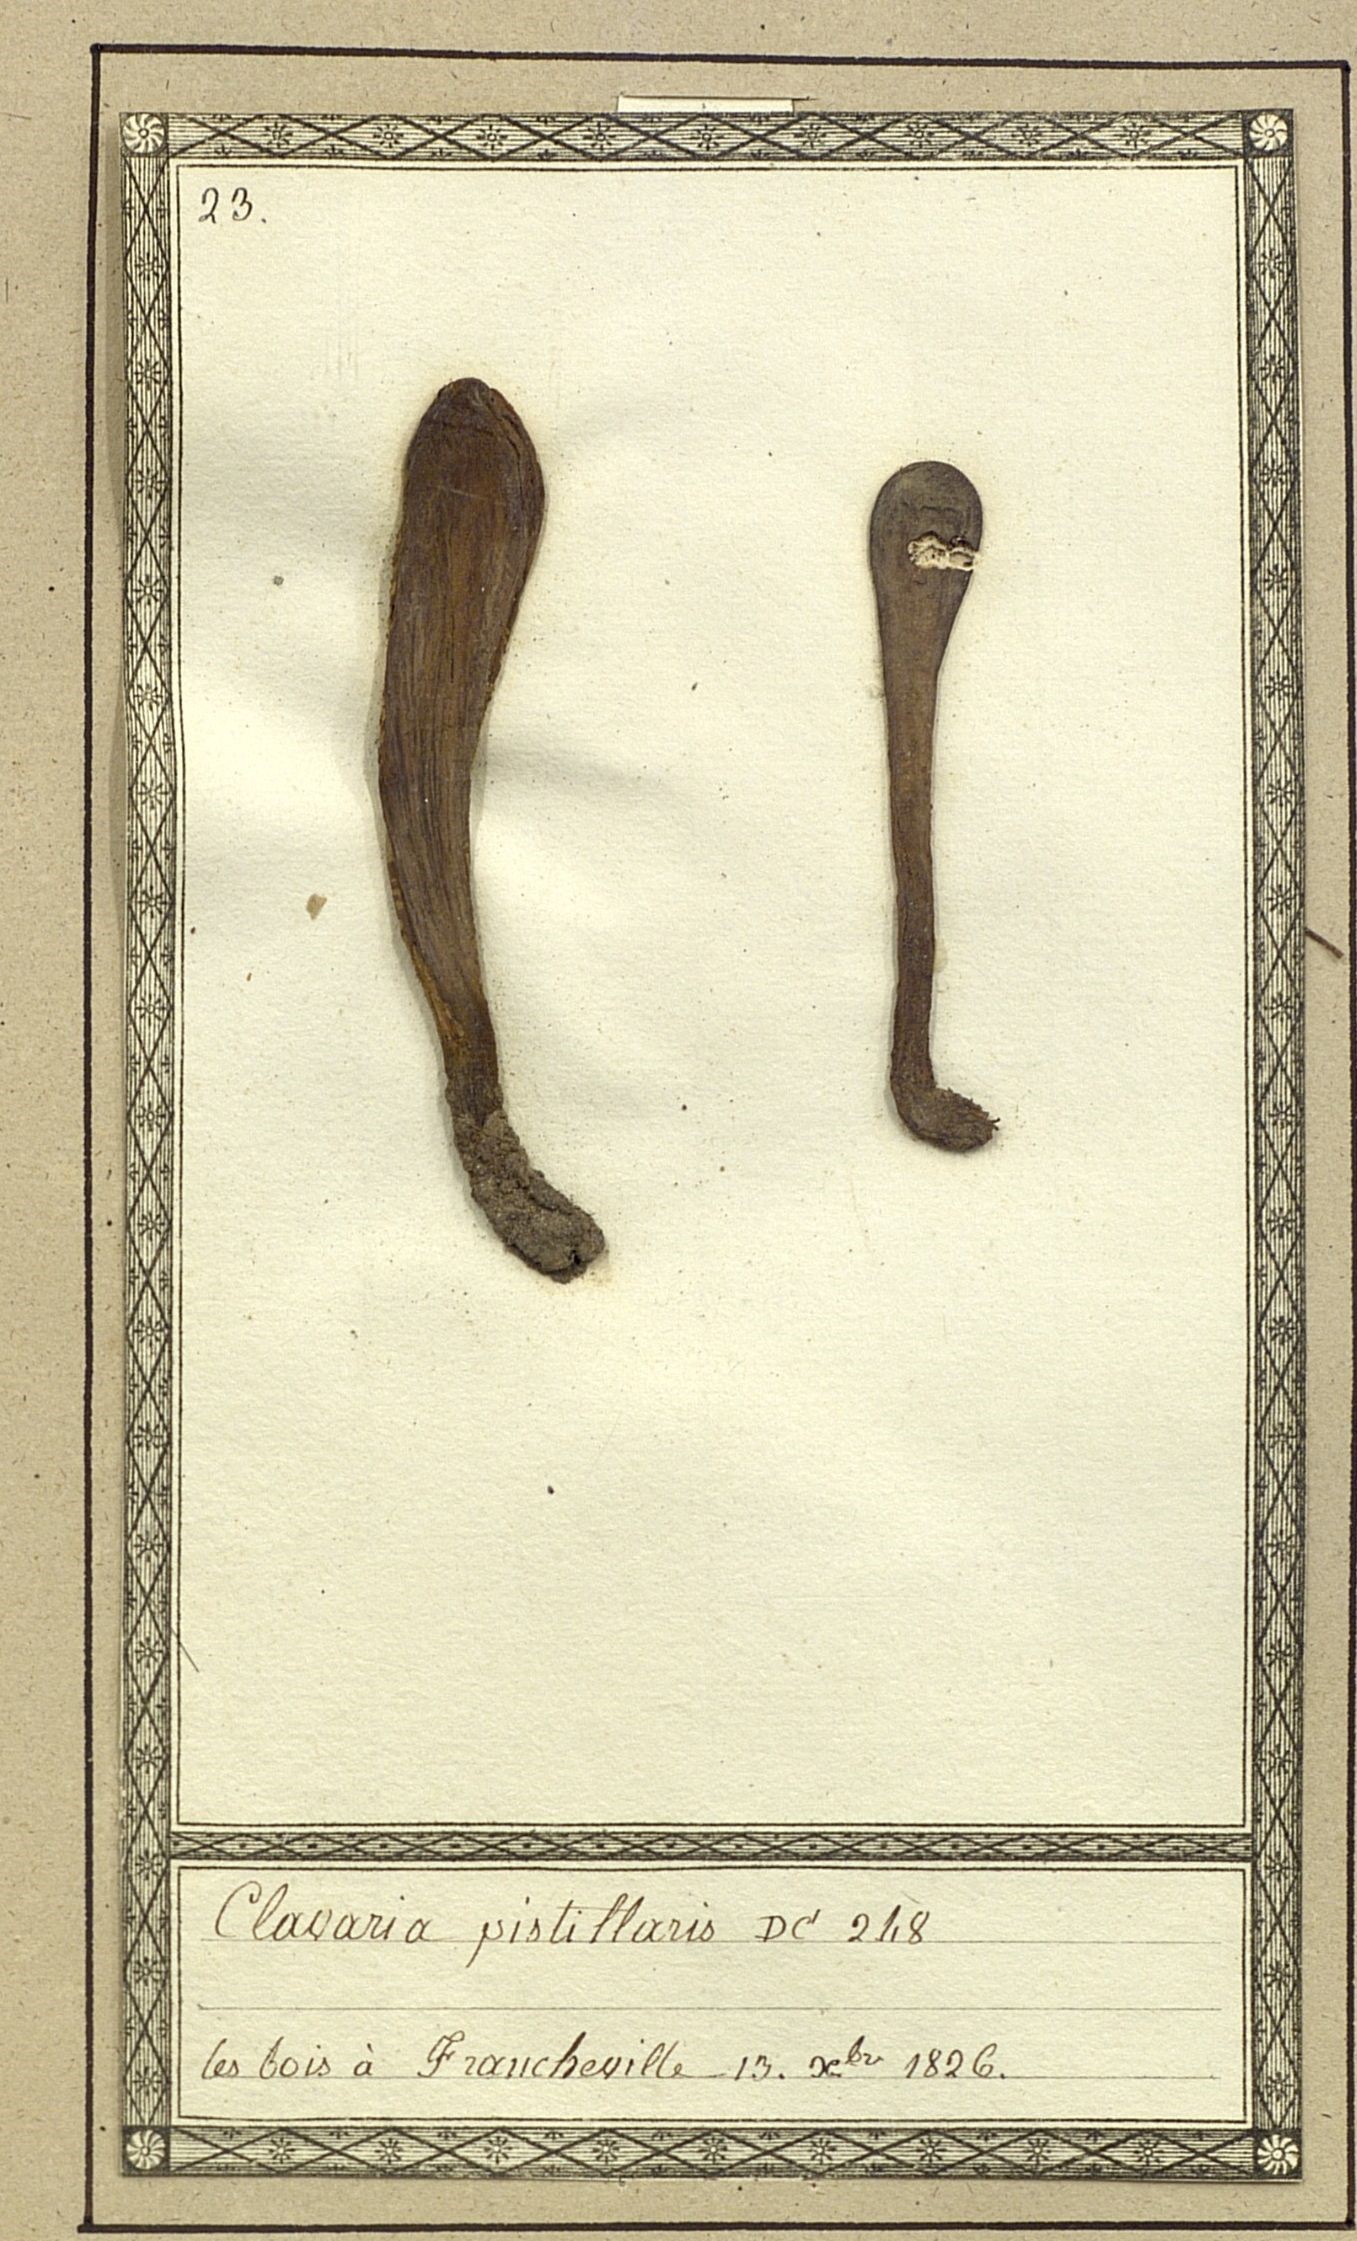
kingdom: Fungi
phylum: Basidiomycota
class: Agaricomycetes
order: Gomphales
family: Clavariadelphaceae
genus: Clavariadelphus
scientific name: Clavariadelphus pistillaris
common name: Giant club
